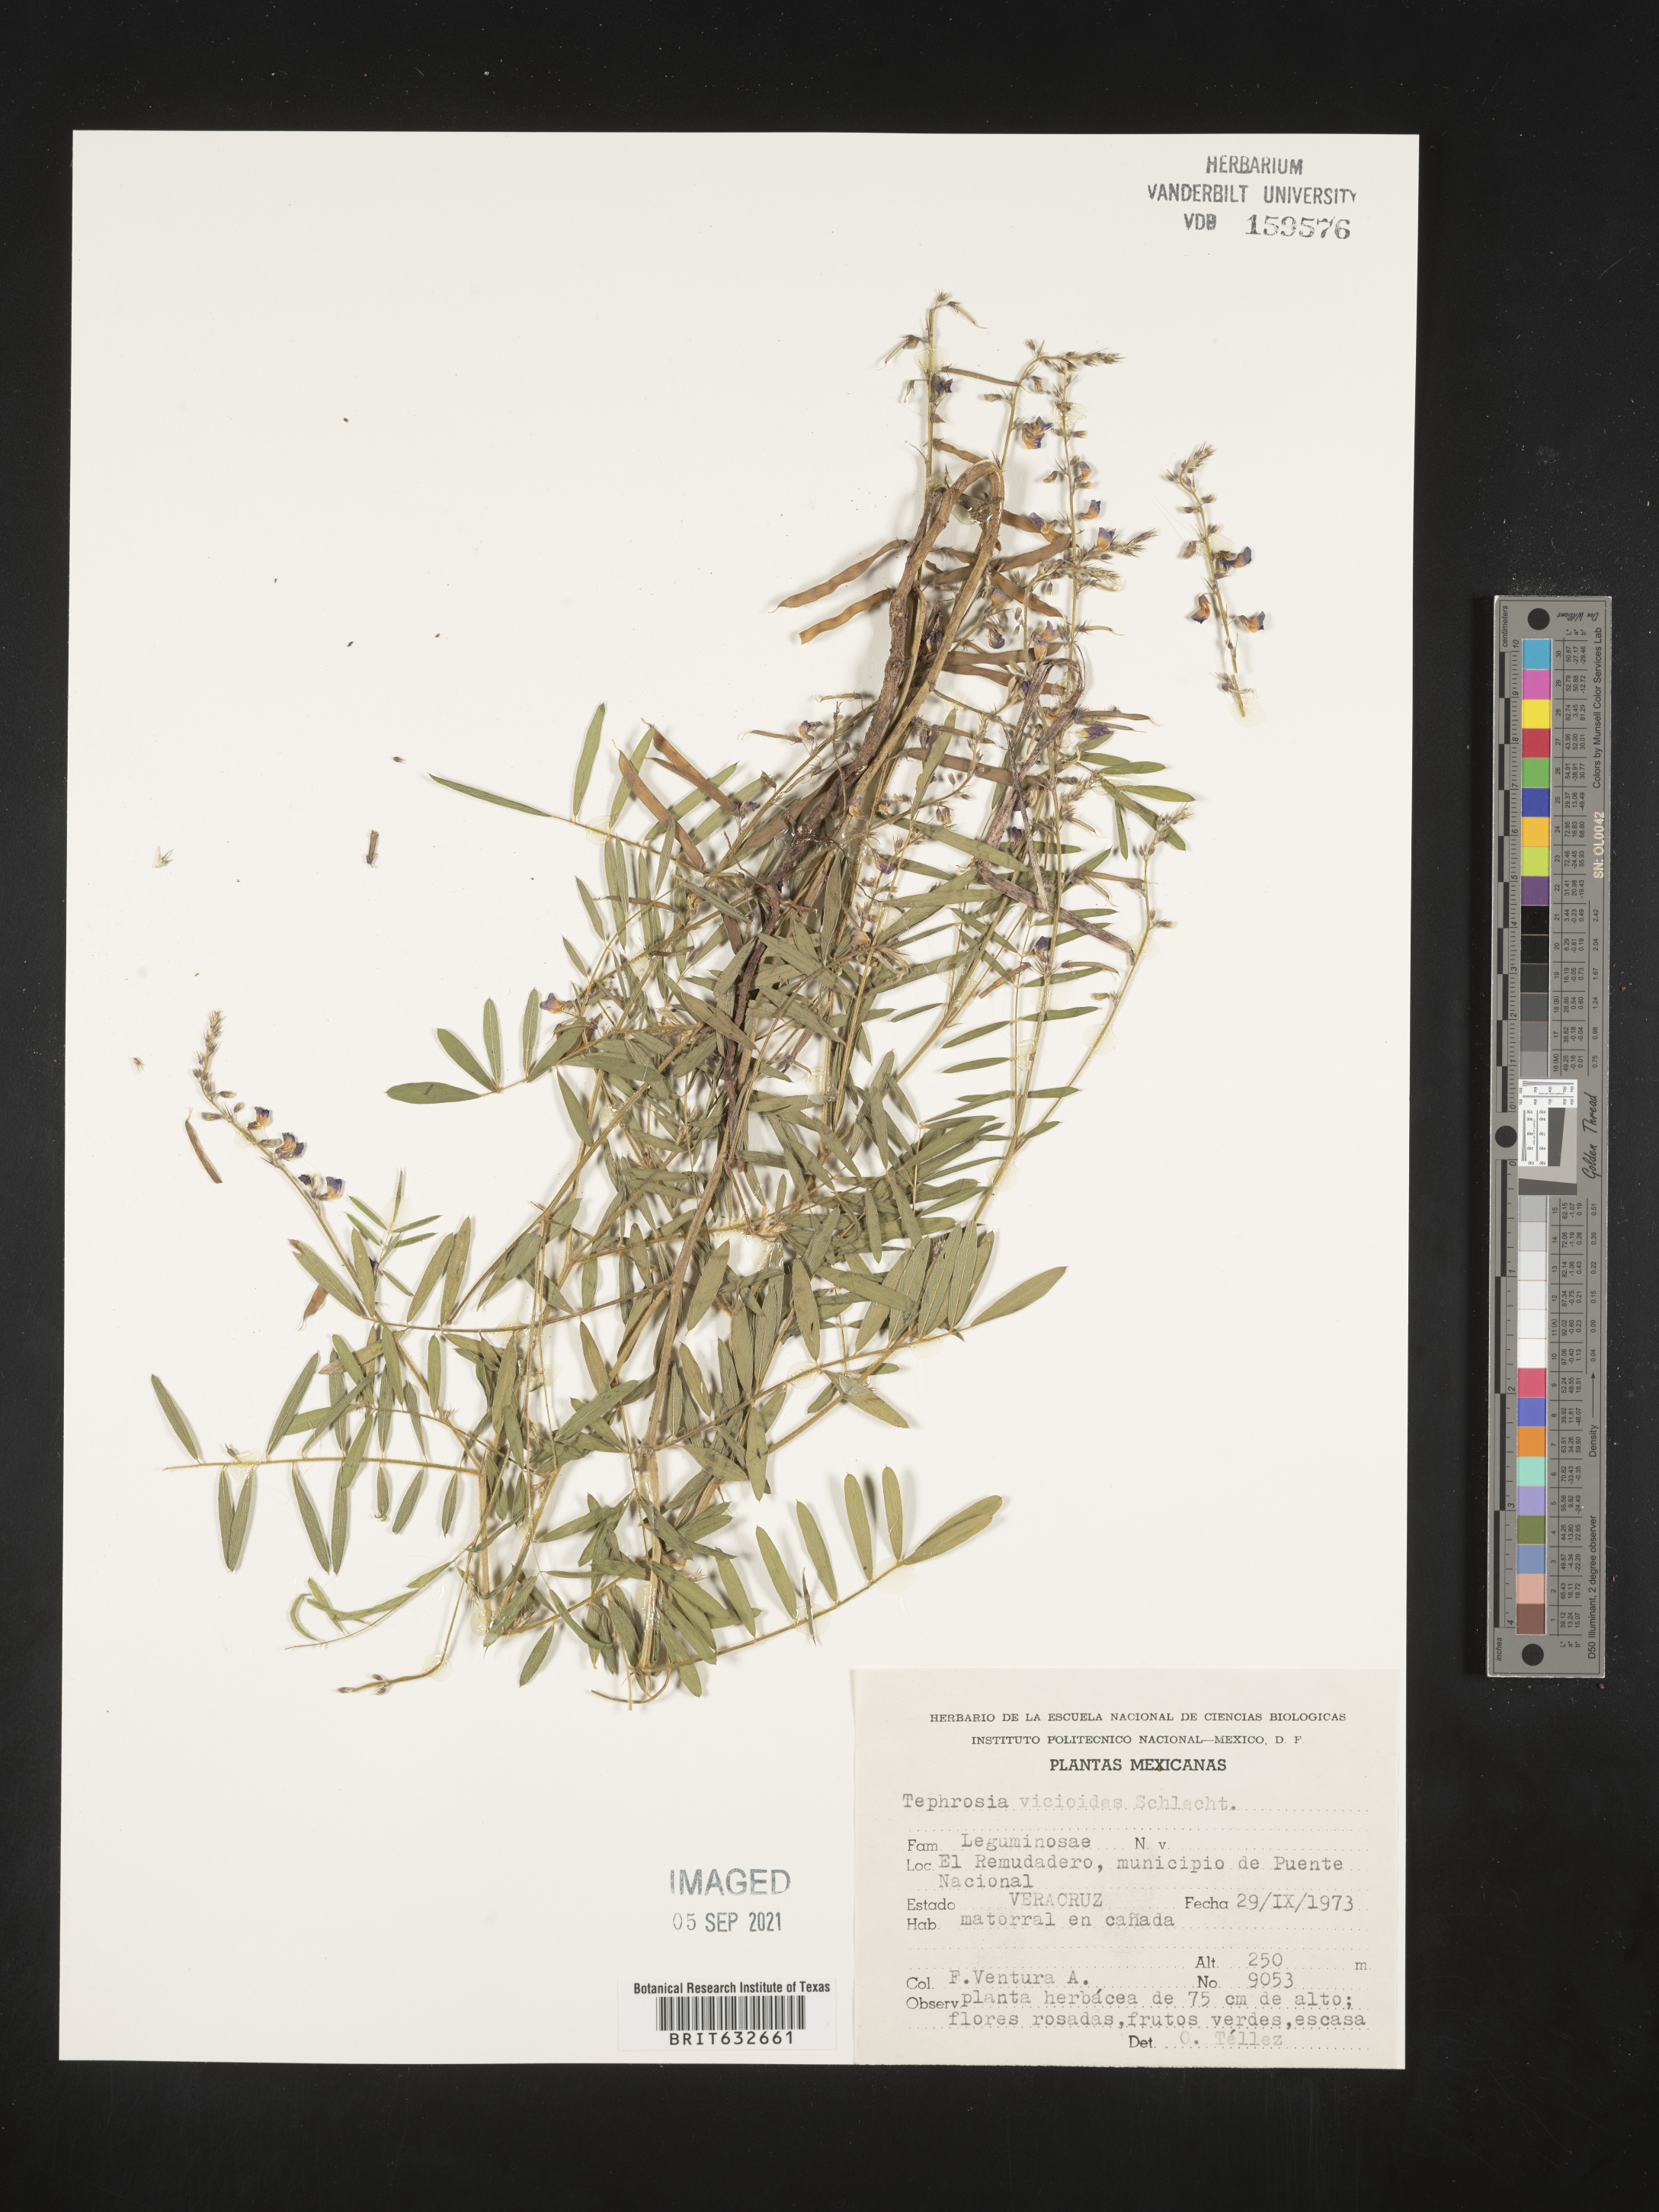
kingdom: Plantae
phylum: Tracheophyta
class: Magnoliopsida
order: Fabales
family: Fabaceae
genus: Tephrosia
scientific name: Tephrosia
